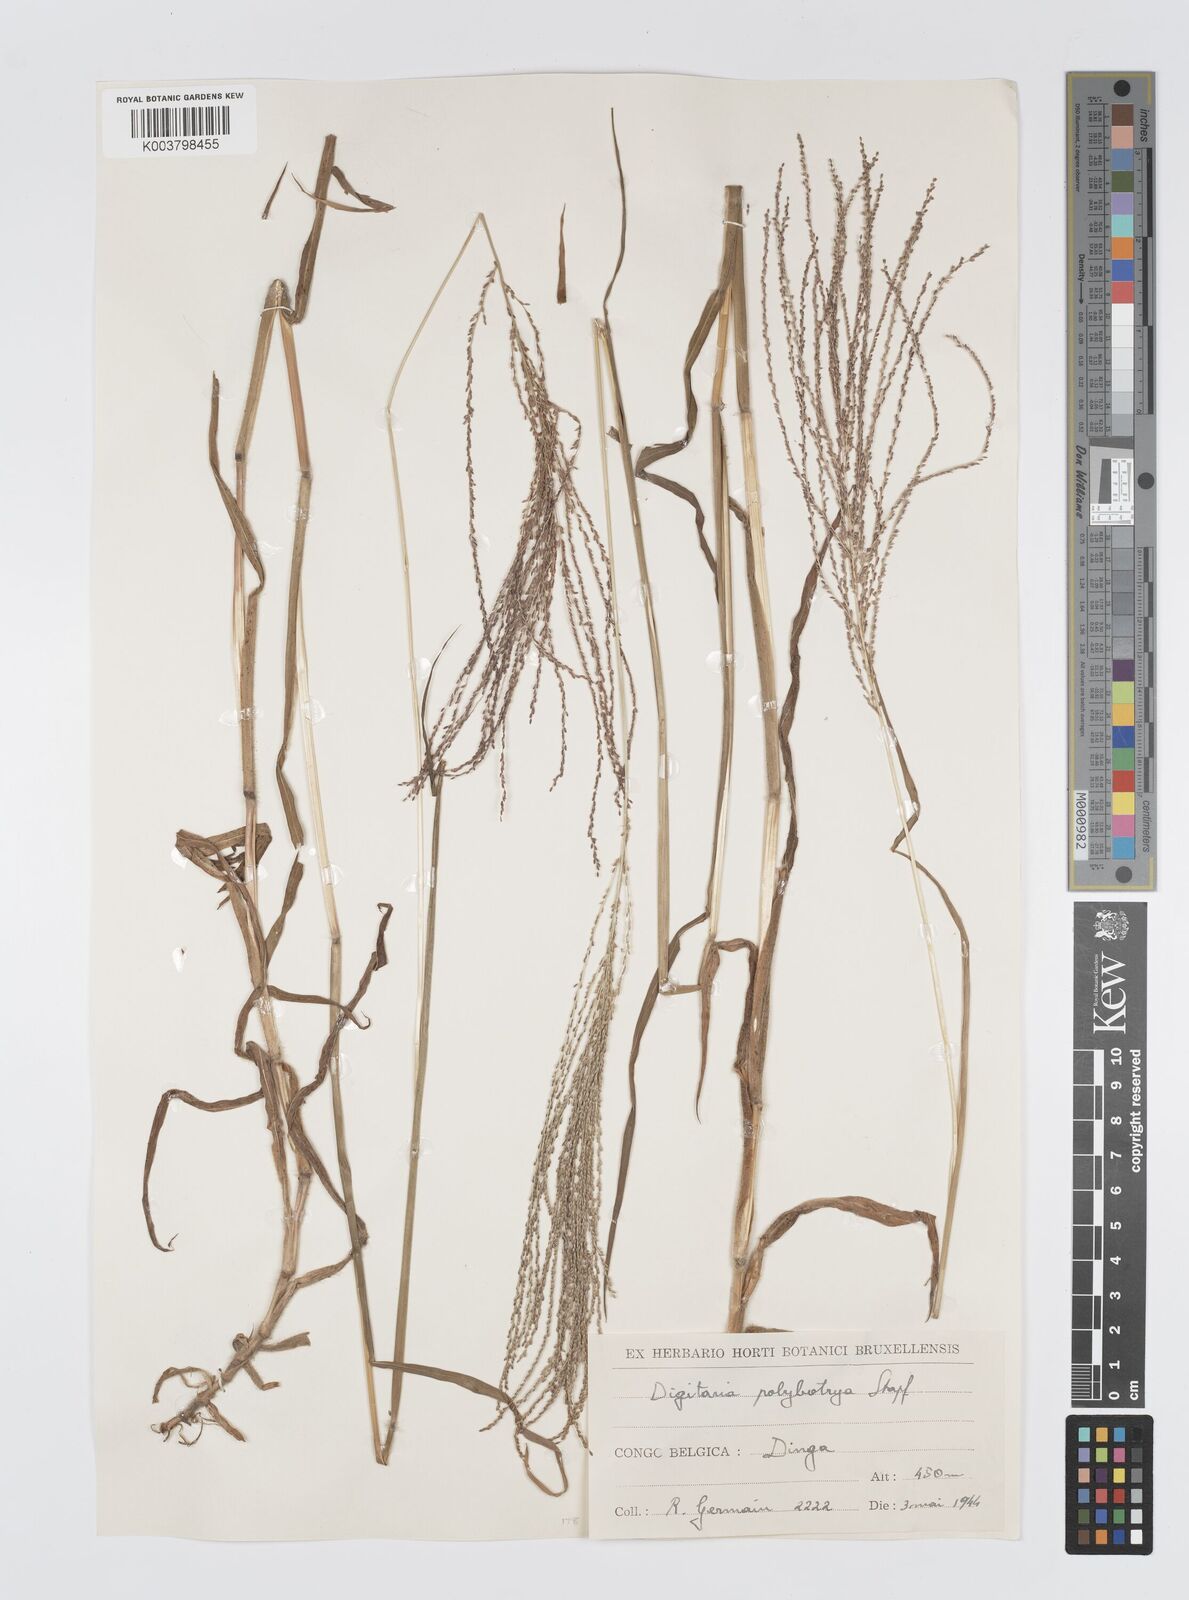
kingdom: Plantae
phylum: Tracheophyta
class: Liliopsida
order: Poales
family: Poaceae
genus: Digitaria
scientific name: Digitaria leptorhachis
